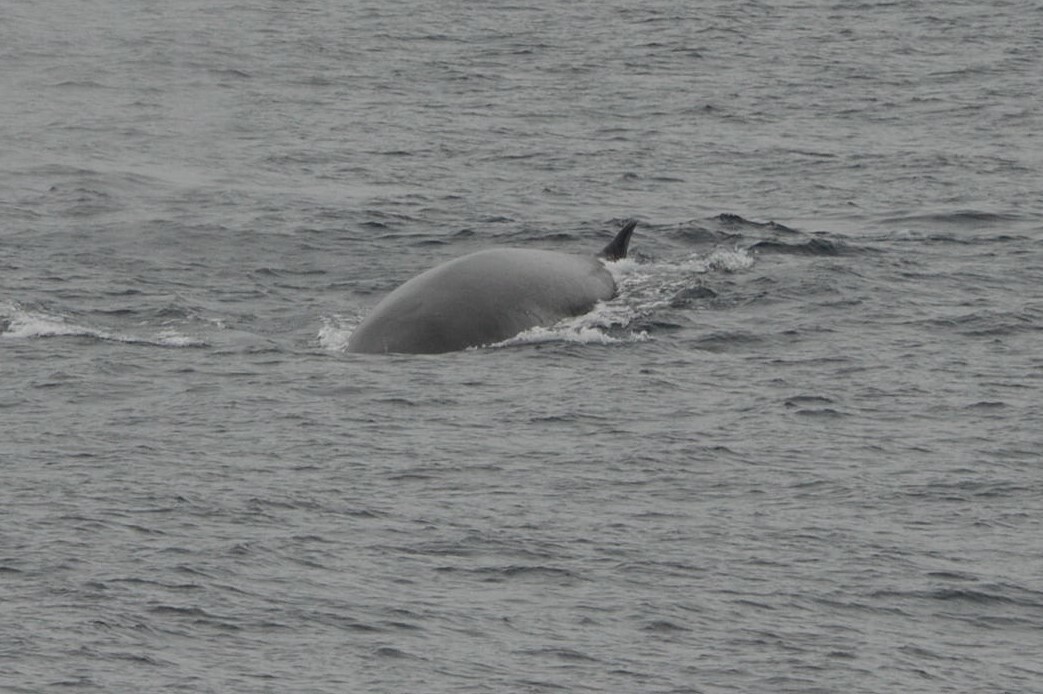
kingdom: Animalia
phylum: Chordata
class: Mammalia
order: Cetacea
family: Balaenopteridae
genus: Balaenoptera
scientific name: Balaenoptera borealis
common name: Sei Whale
